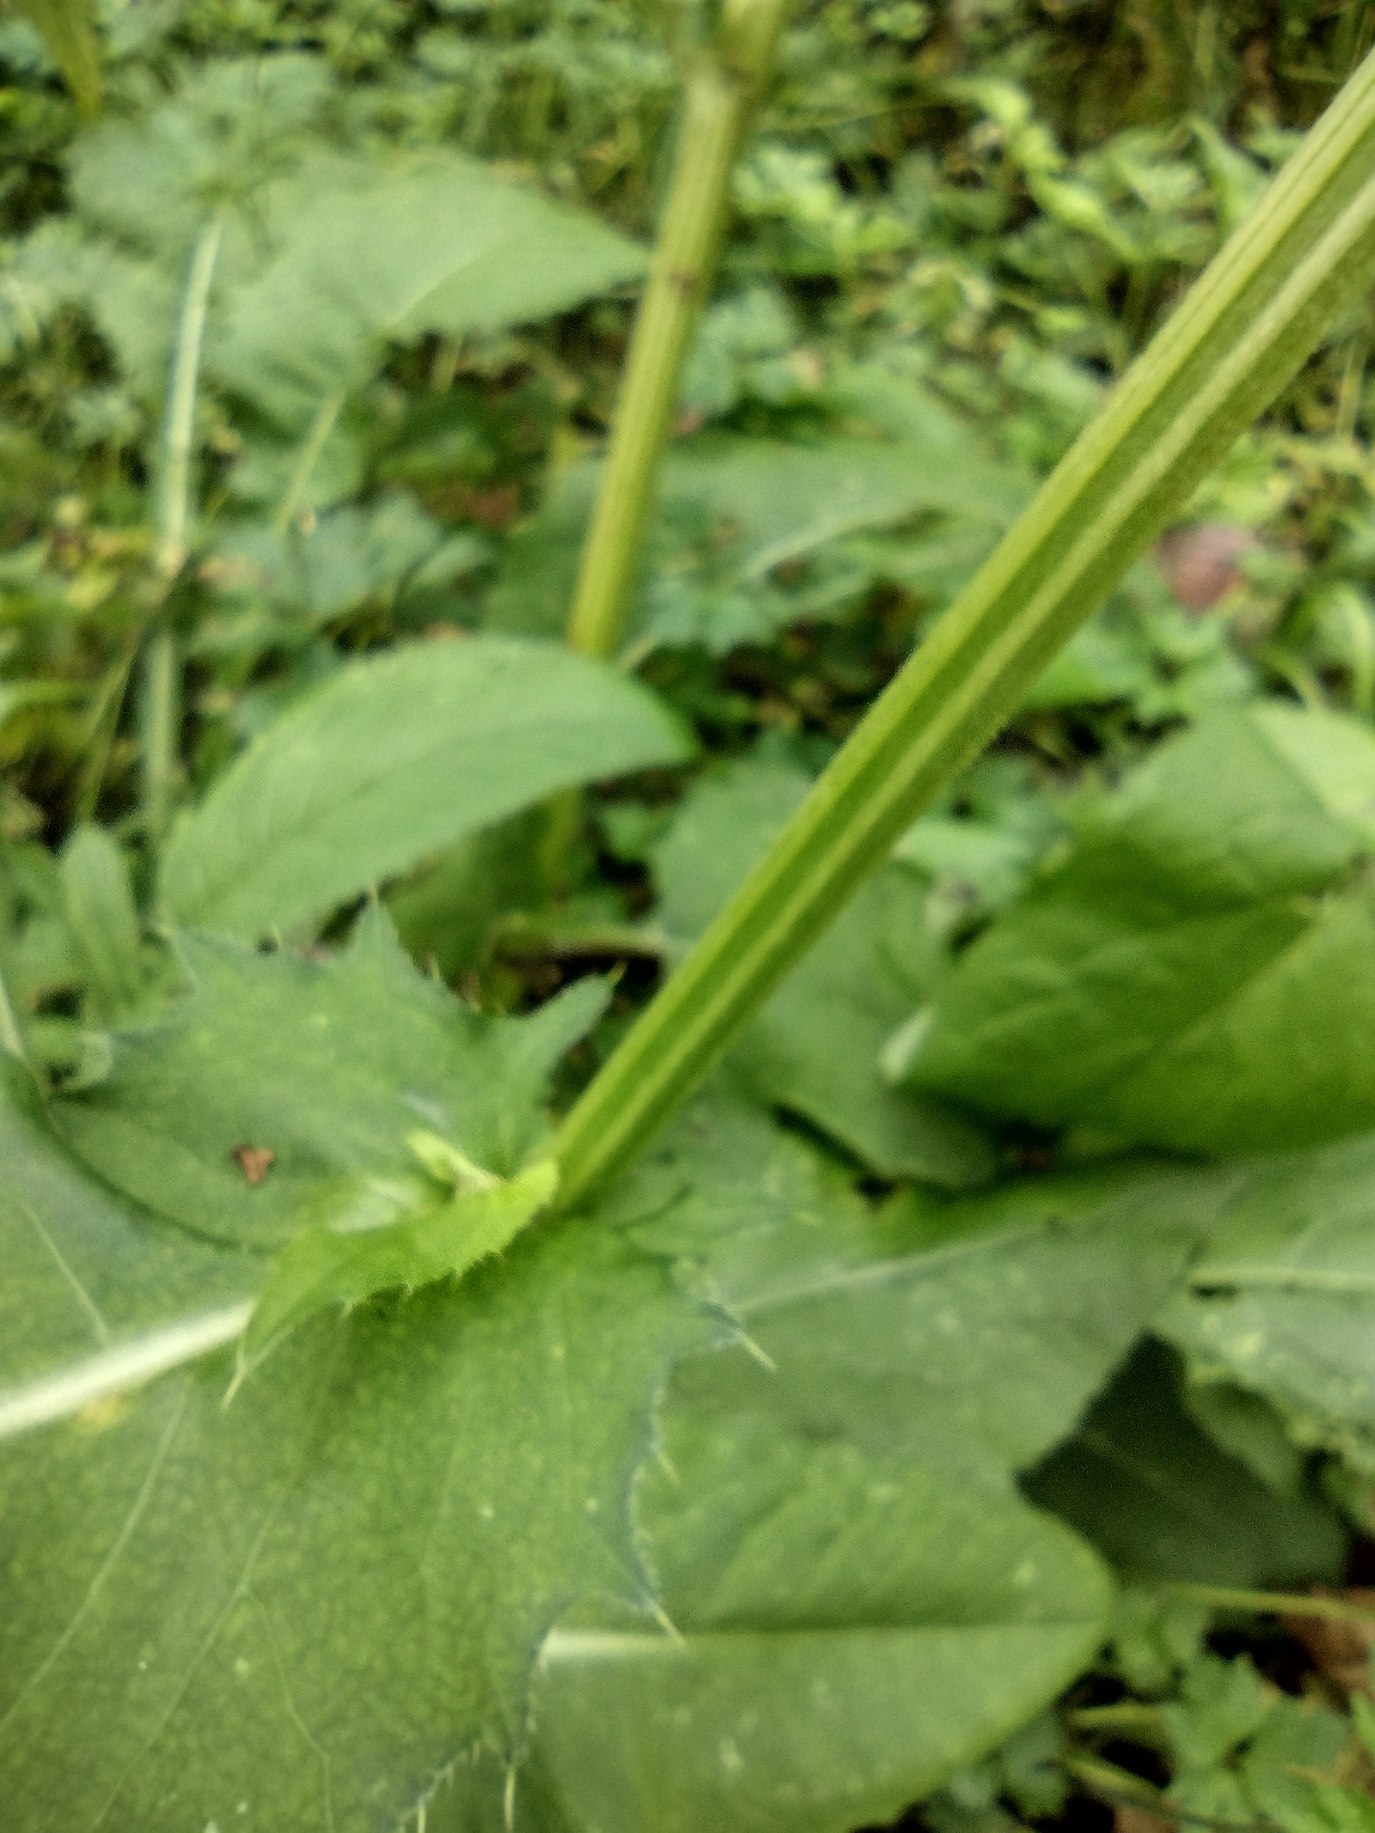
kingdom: Plantae
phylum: Tracheophyta
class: Magnoliopsida
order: Asterales
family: Asteraceae
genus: Cirsium
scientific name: Cirsium oleraceum
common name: Kål-tidsel
